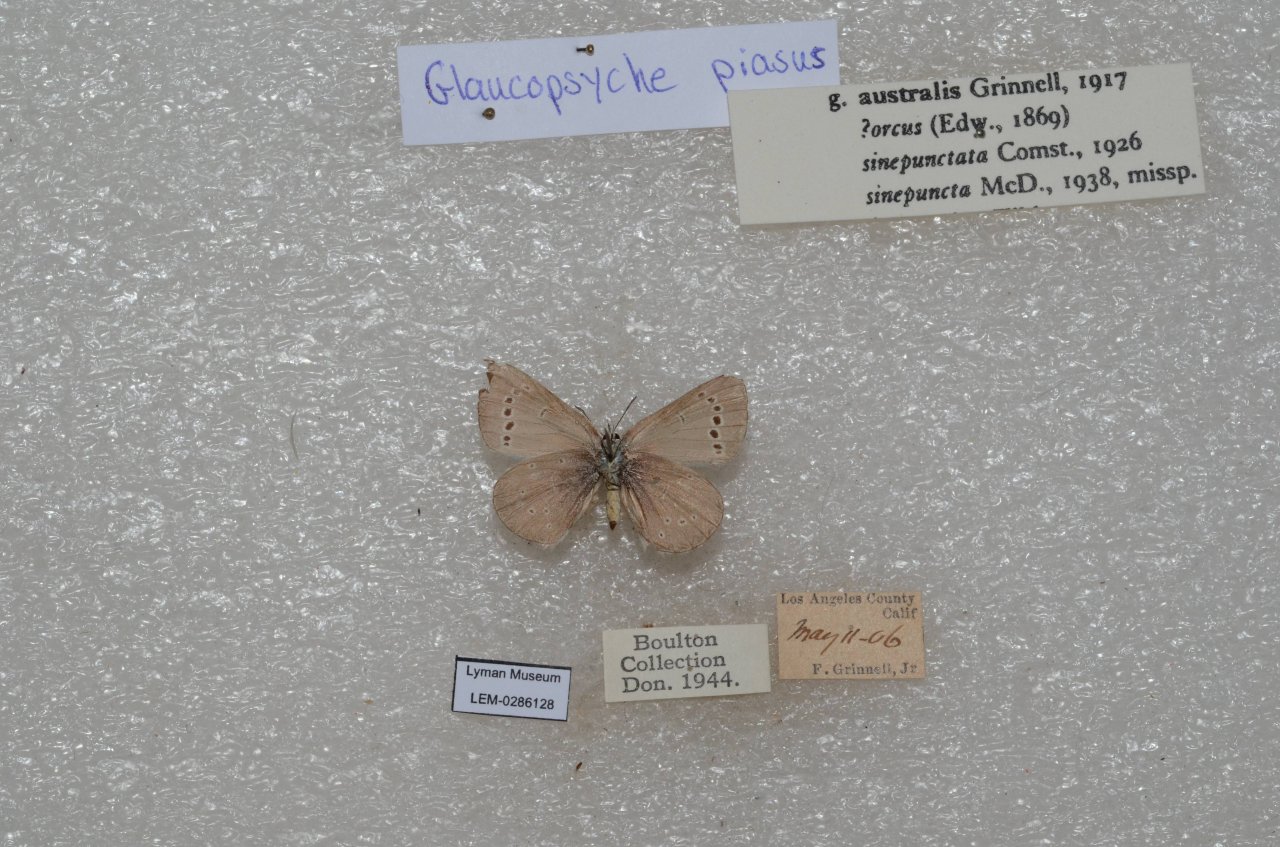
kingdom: Animalia
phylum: Arthropoda
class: Insecta
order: Lepidoptera
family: Lycaenidae
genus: Glaucopsyche
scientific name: Glaucopsyche lygdamus
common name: Silvery Blue
